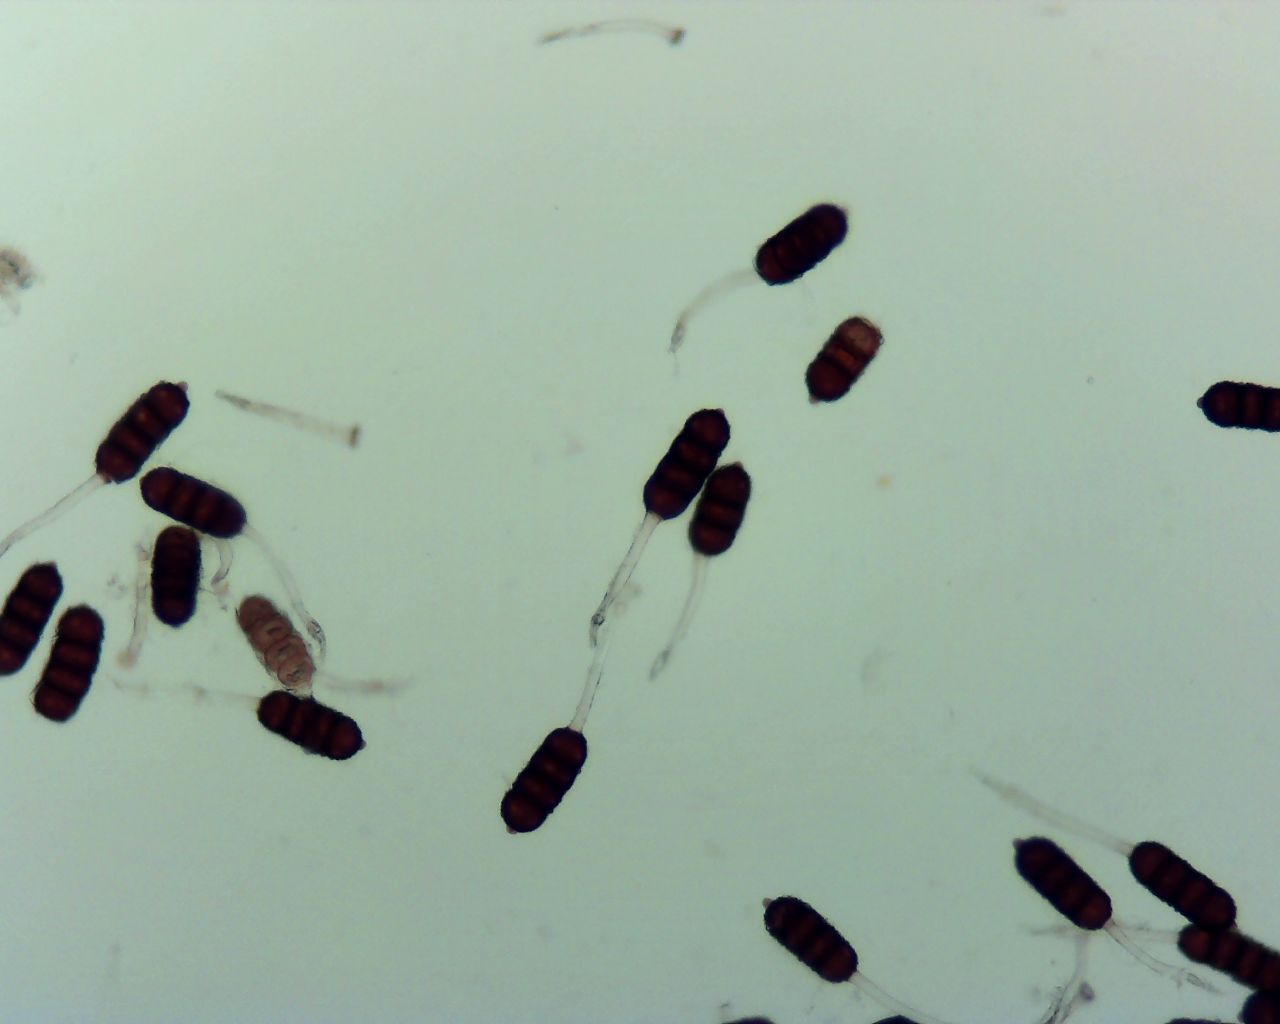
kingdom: Fungi
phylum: Basidiomycota
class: Pucciniomycetes
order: Pucciniales
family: Phragmidiaceae
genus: Phragmidium
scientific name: Phragmidium violaceum
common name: violet flercellerust
